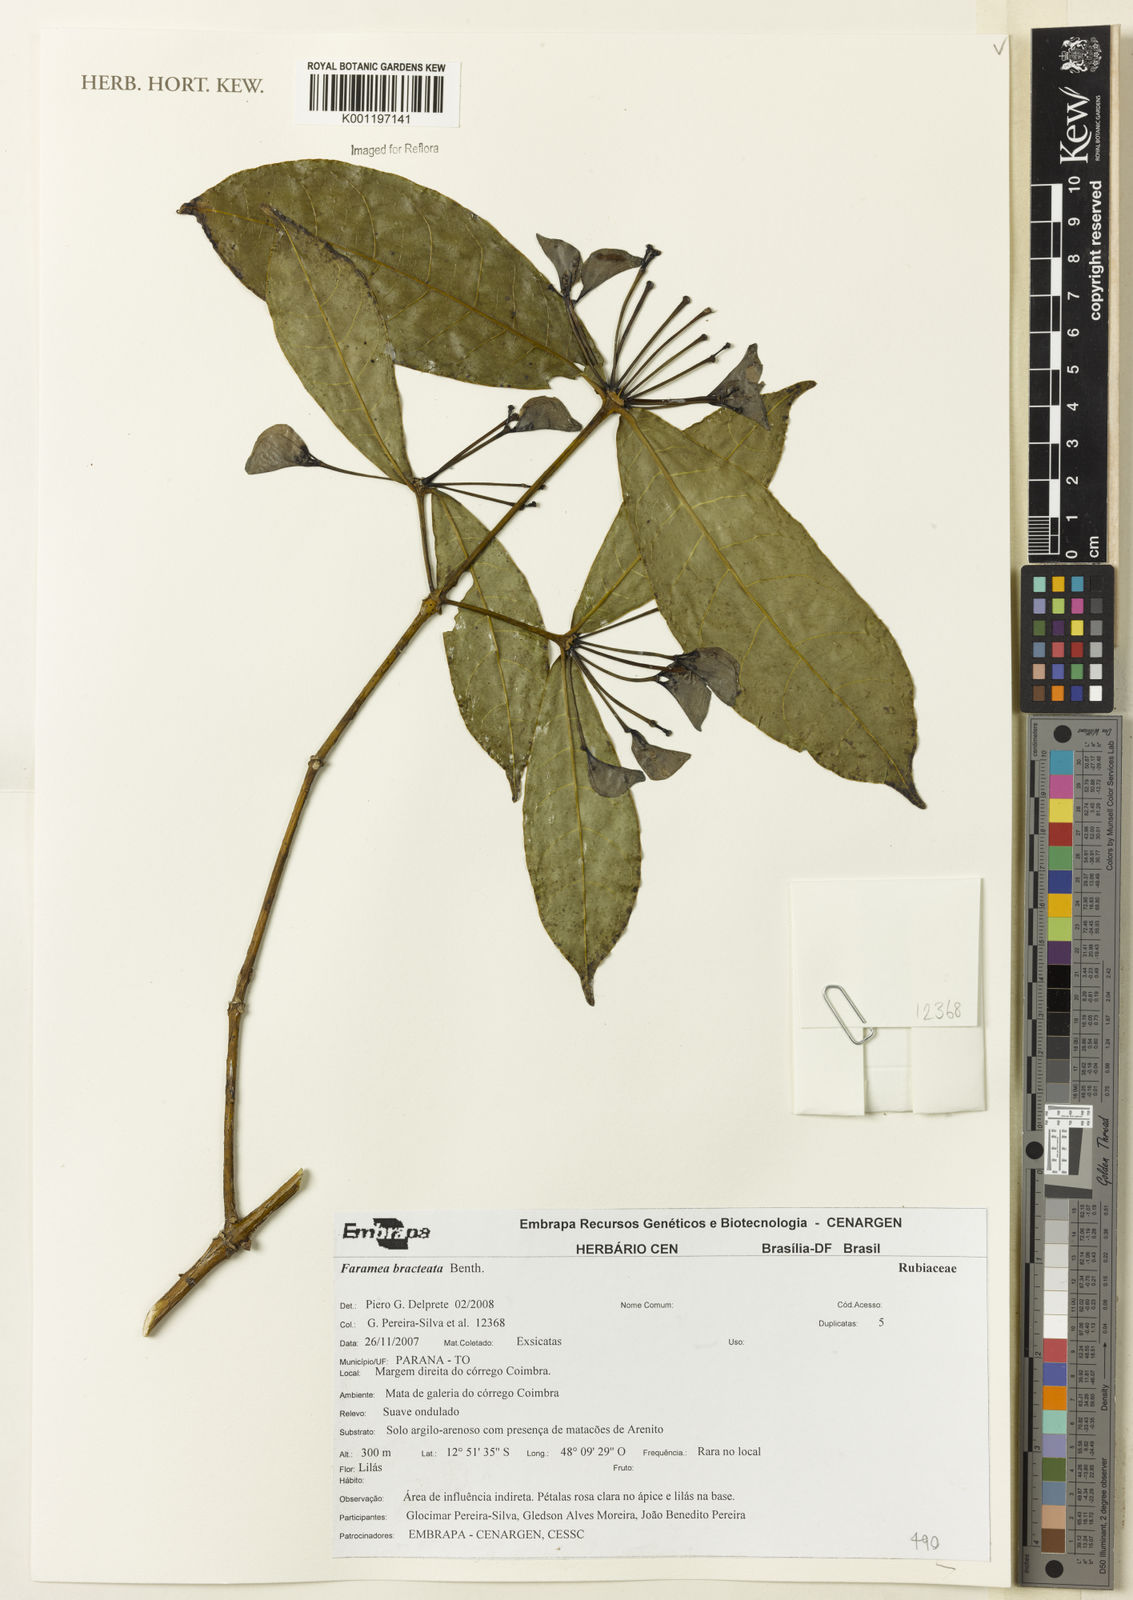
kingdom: Plantae
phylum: Tracheophyta
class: Magnoliopsida
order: Gentianales
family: Rubiaceae
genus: Faramea
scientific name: Faramea bracteata
